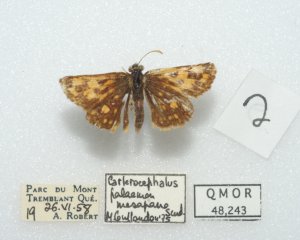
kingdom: Animalia
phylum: Arthropoda
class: Insecta
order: Lepidoptera
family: Hesperiidae
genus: Carterocephalus
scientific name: Carterocephalus palaemon
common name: Chequered Skipper
